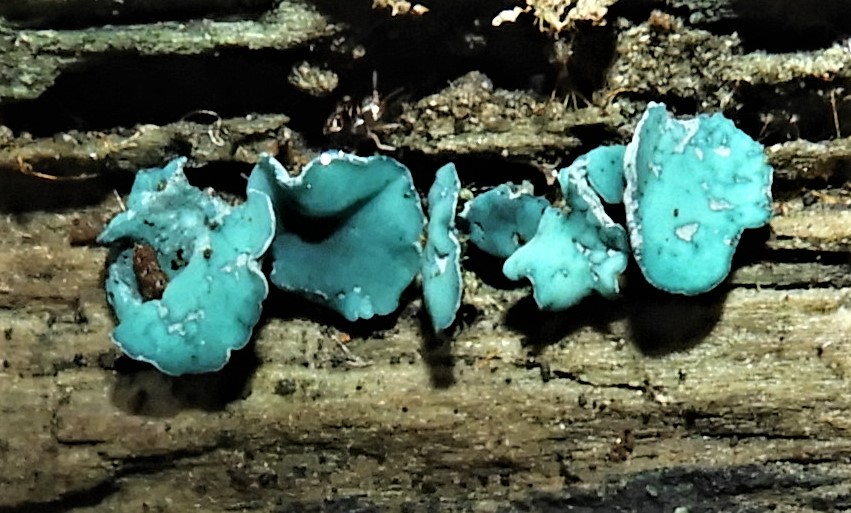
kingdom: Fungi
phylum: Ascomycota
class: Leotiomycetes
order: Helotiales
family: Chlorociboriaceae
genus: Chlorociboria
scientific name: Chlorociboria aeruginascens
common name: almindelig grønskive
